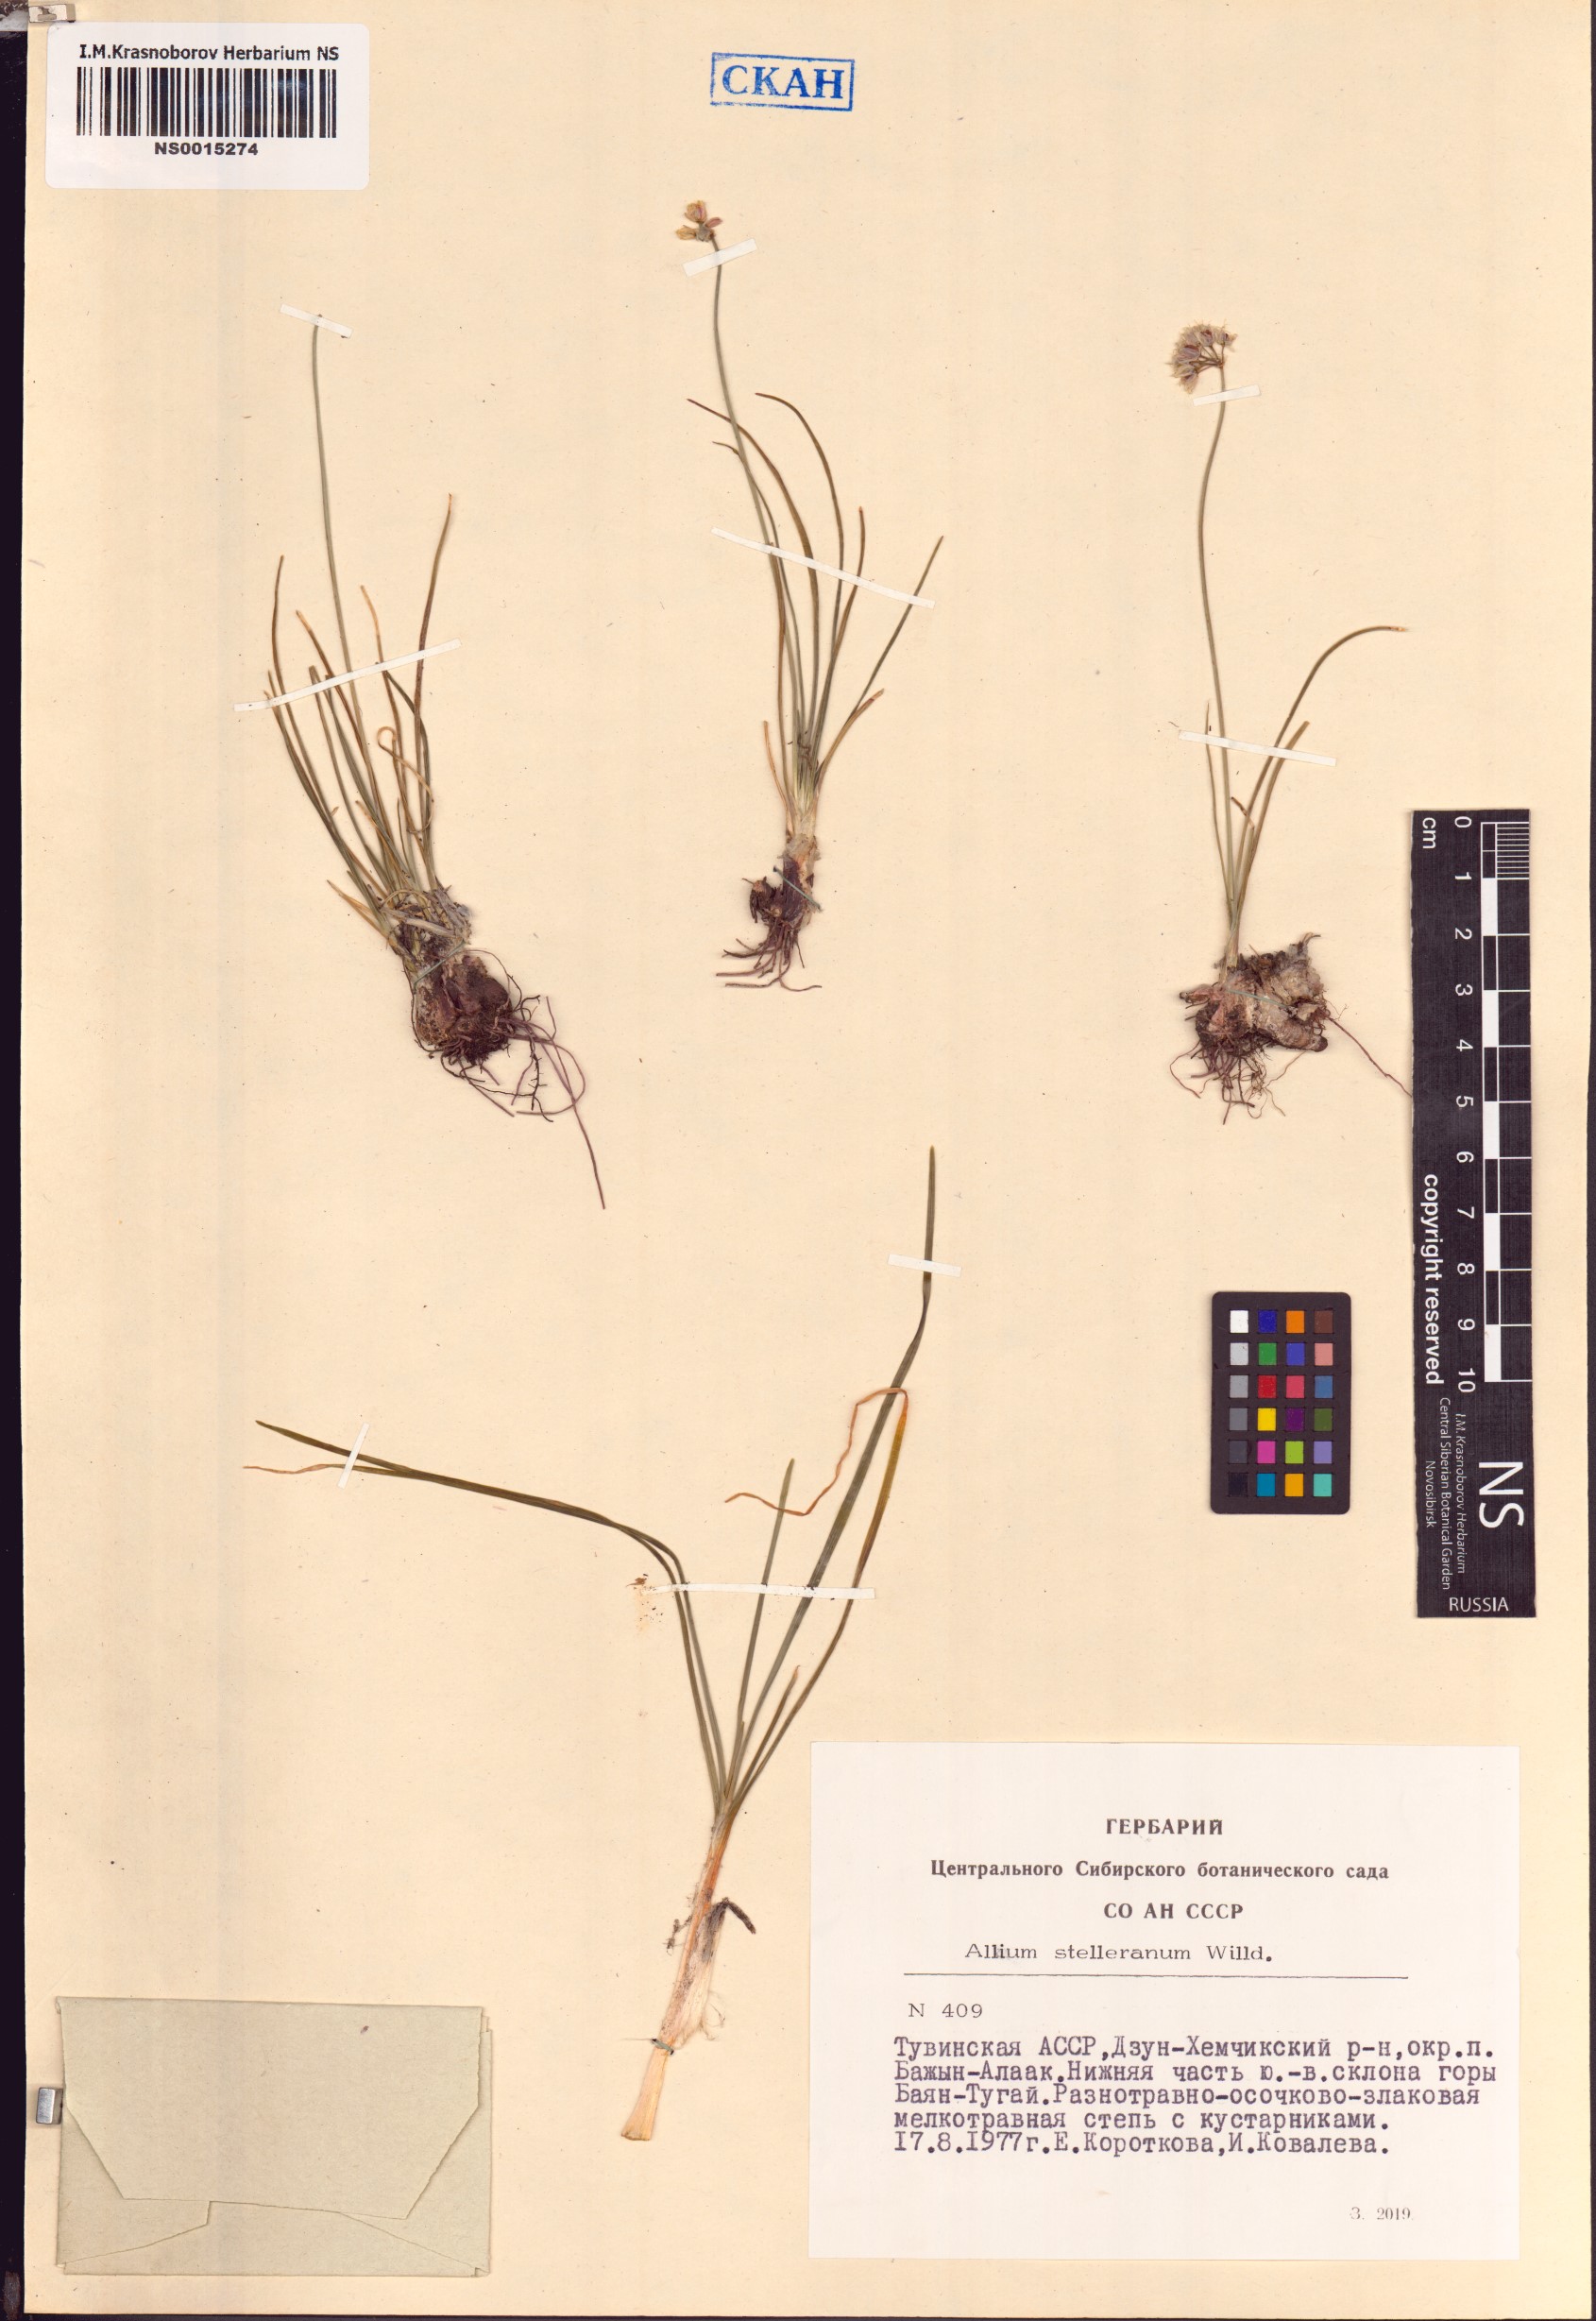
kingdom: Plantae
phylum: Tracheophyta
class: Liliopsida
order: Asparagales
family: Amaryllidaceae
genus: Allium
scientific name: Allium stellerianum
